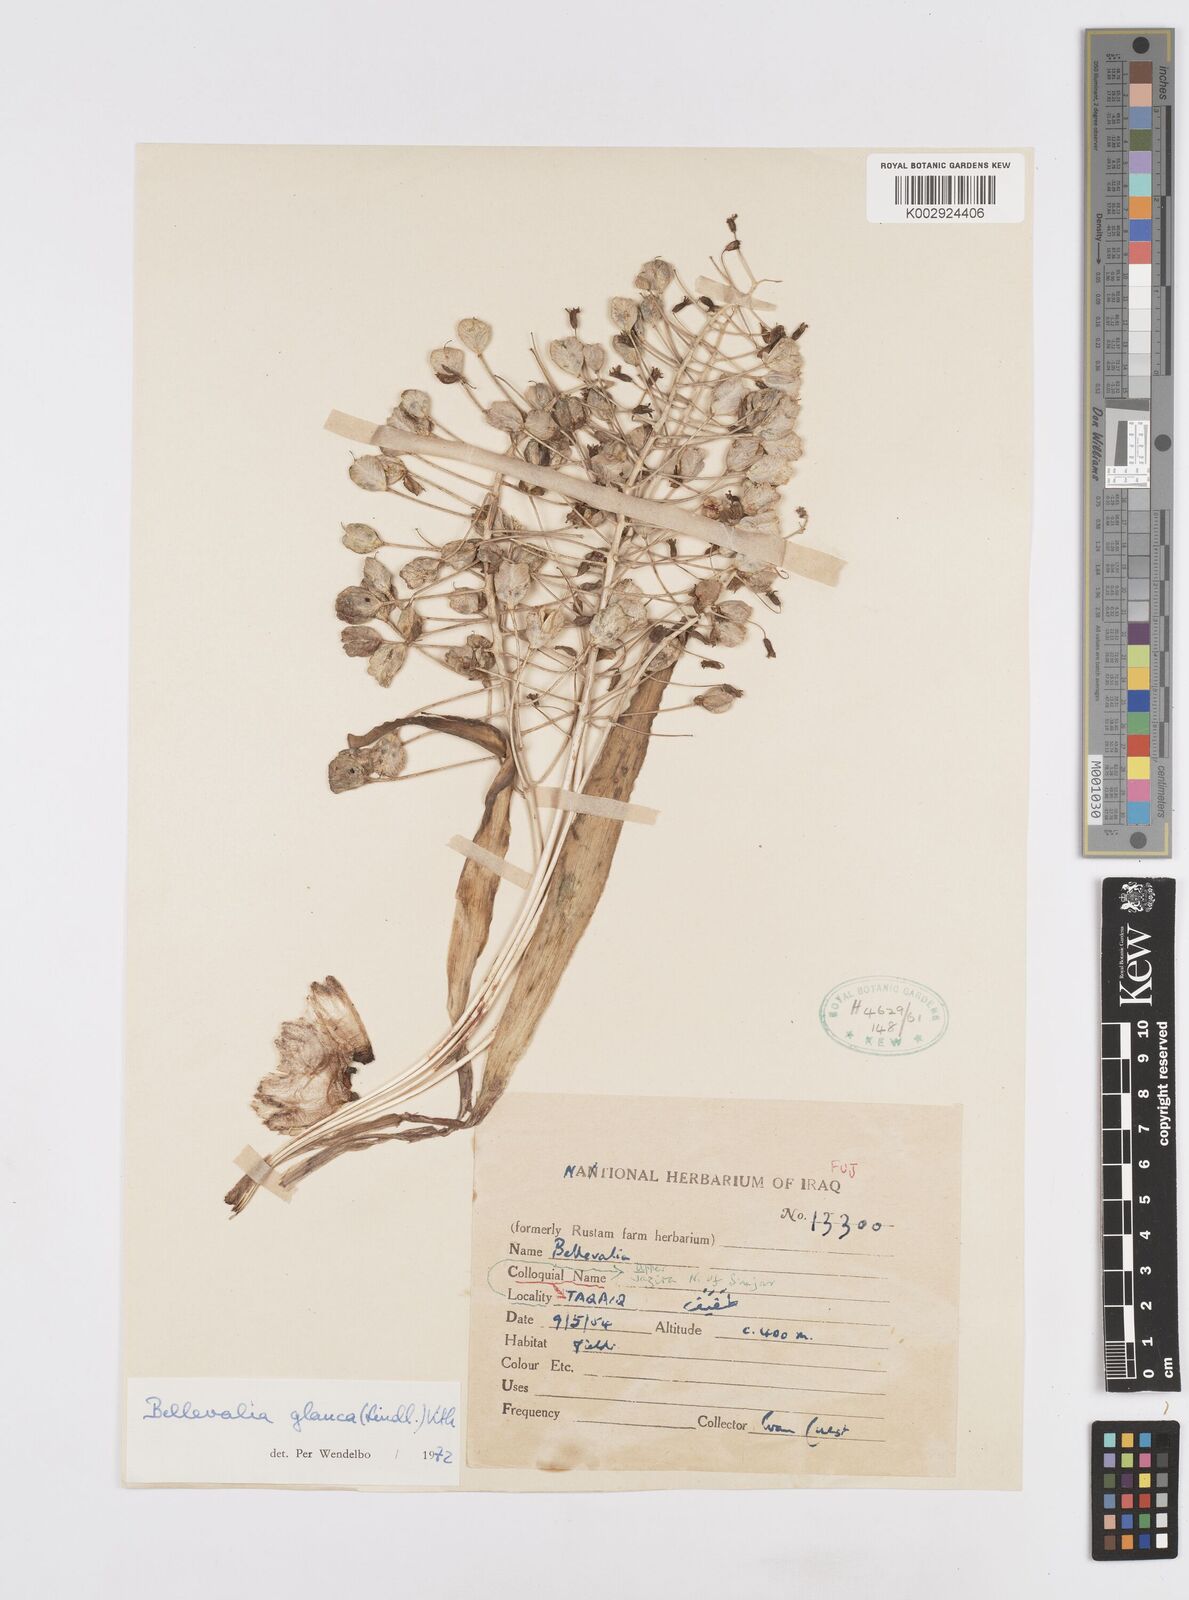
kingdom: Plantae
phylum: Tracheophyta
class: Liliopsida
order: Asparagales
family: Asparagaceae
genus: Bellevalia
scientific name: Bellevalia glauca
